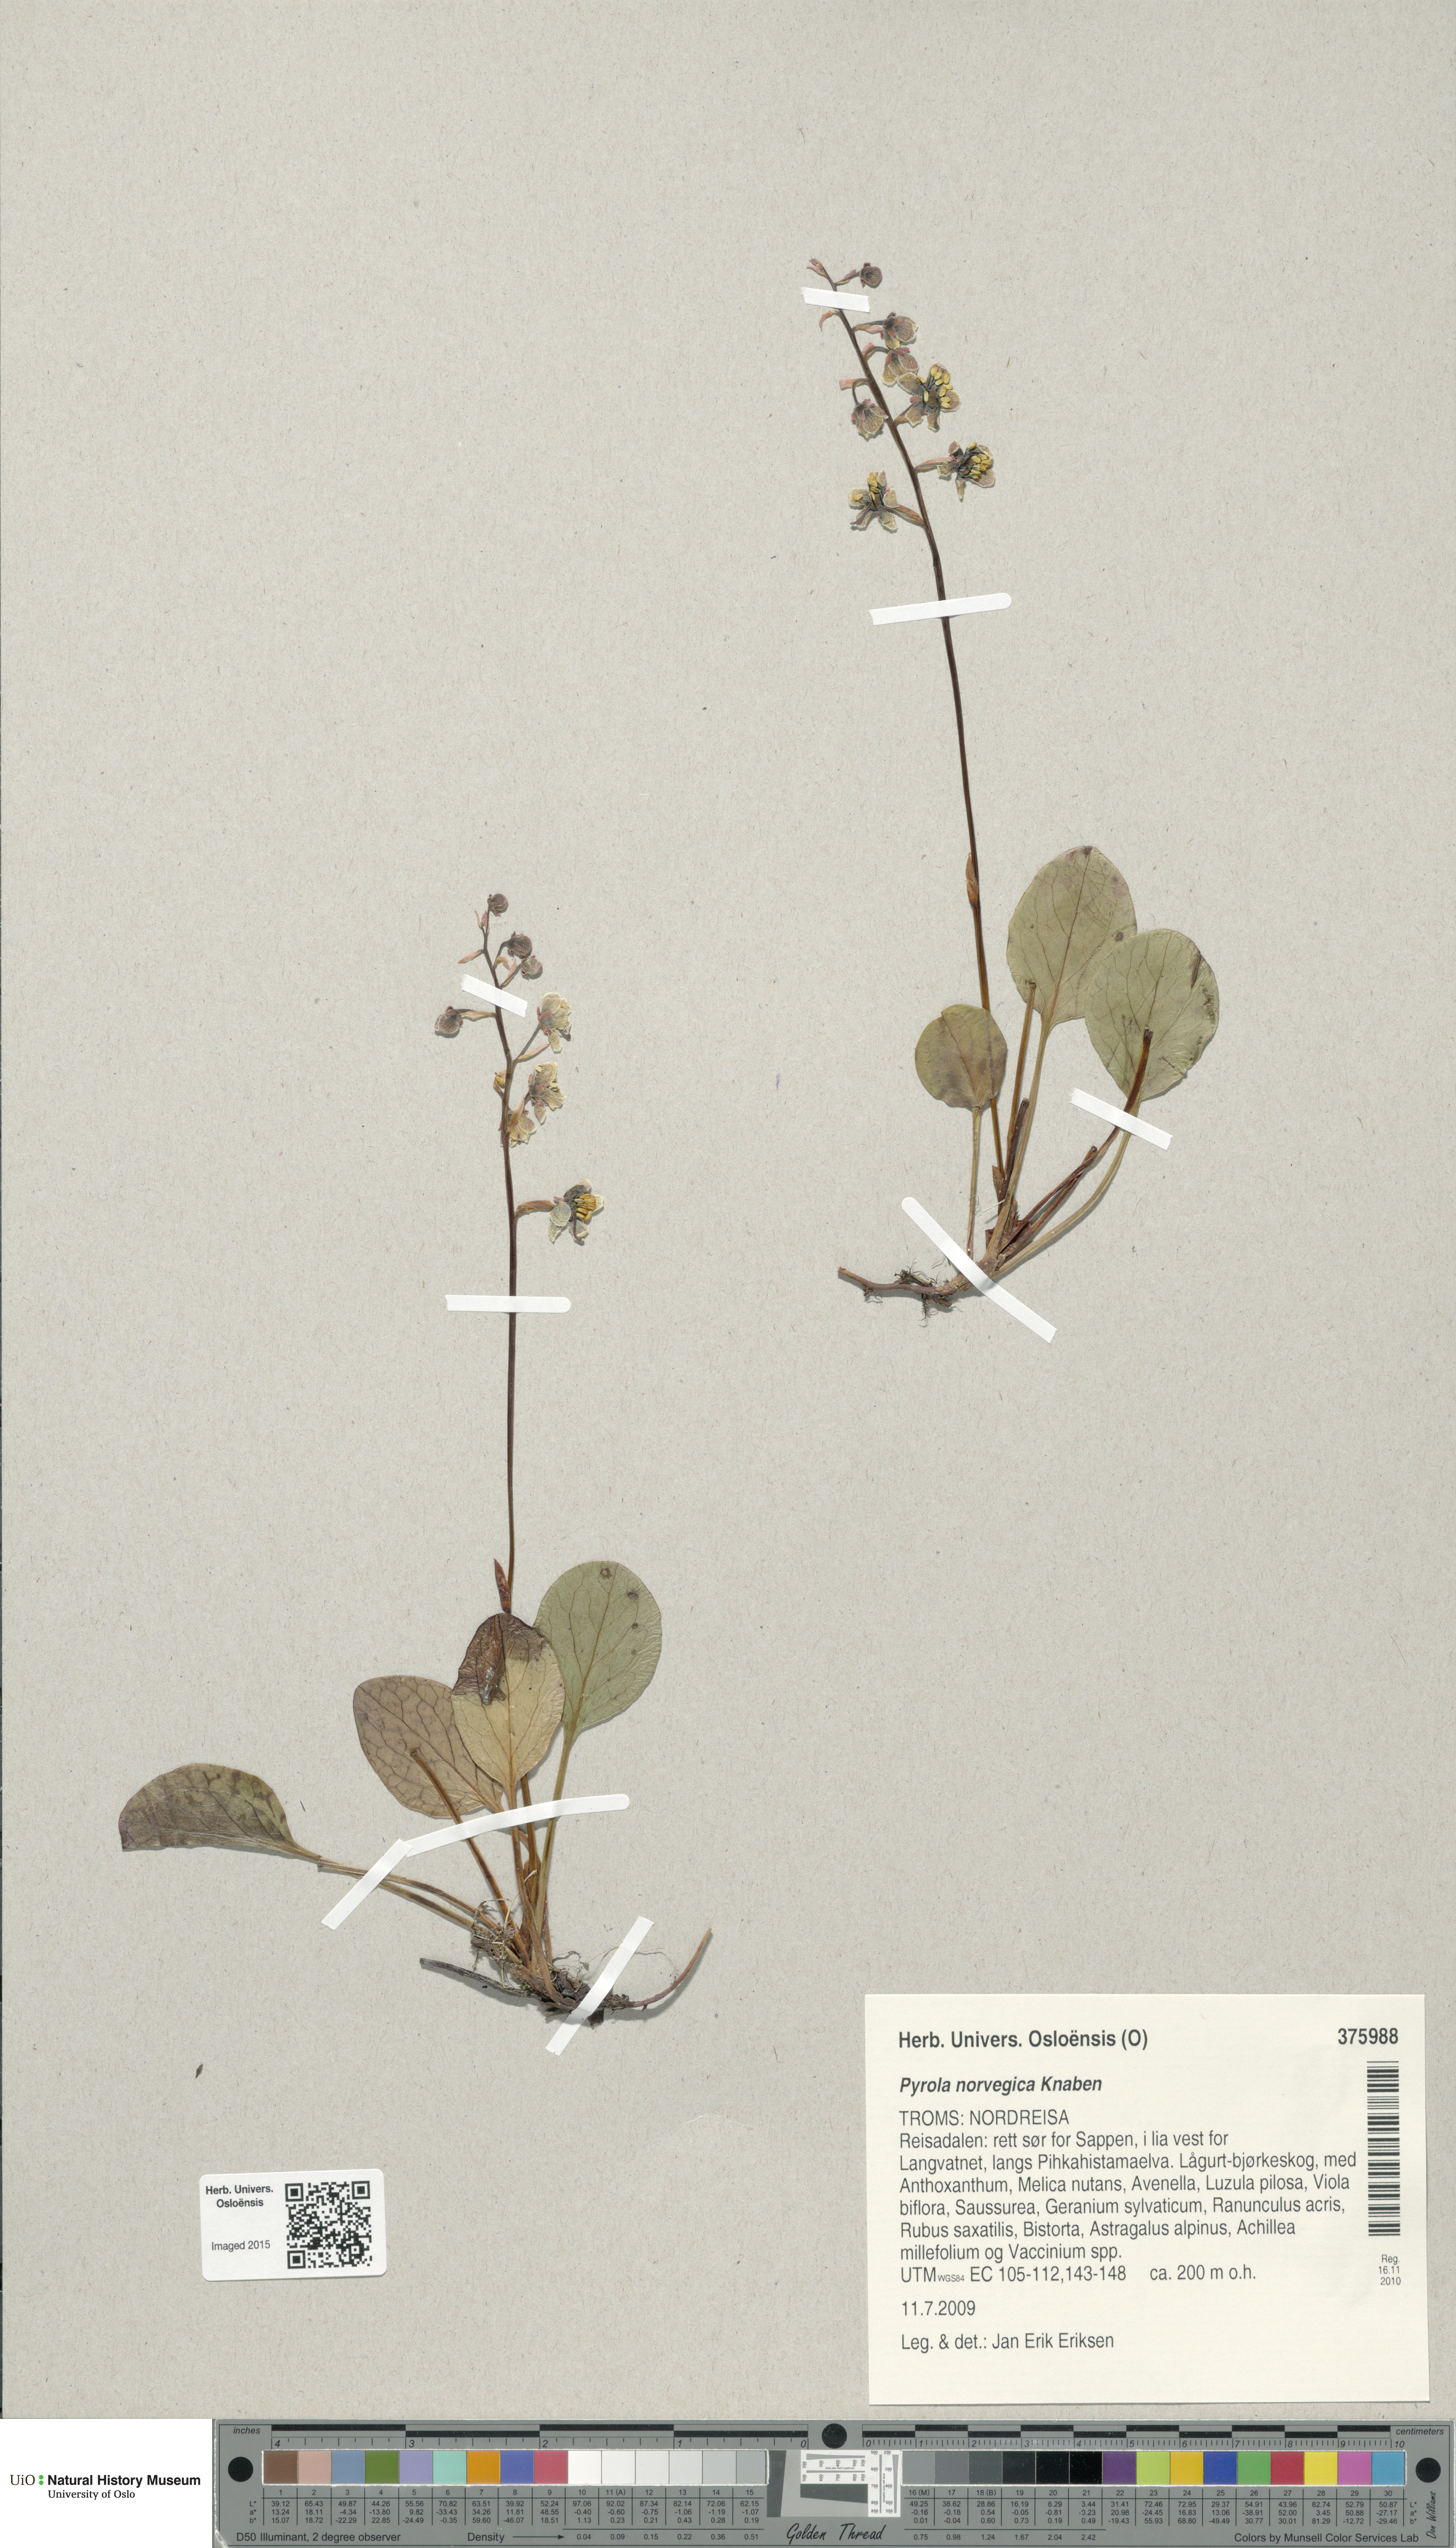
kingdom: Plantae
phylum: Tracheophyta
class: Magnoliopsida
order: Ericales
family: Ericaceae
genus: Pyrola
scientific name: Pyrola rotundifolia
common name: Round-leaved wintergreen
